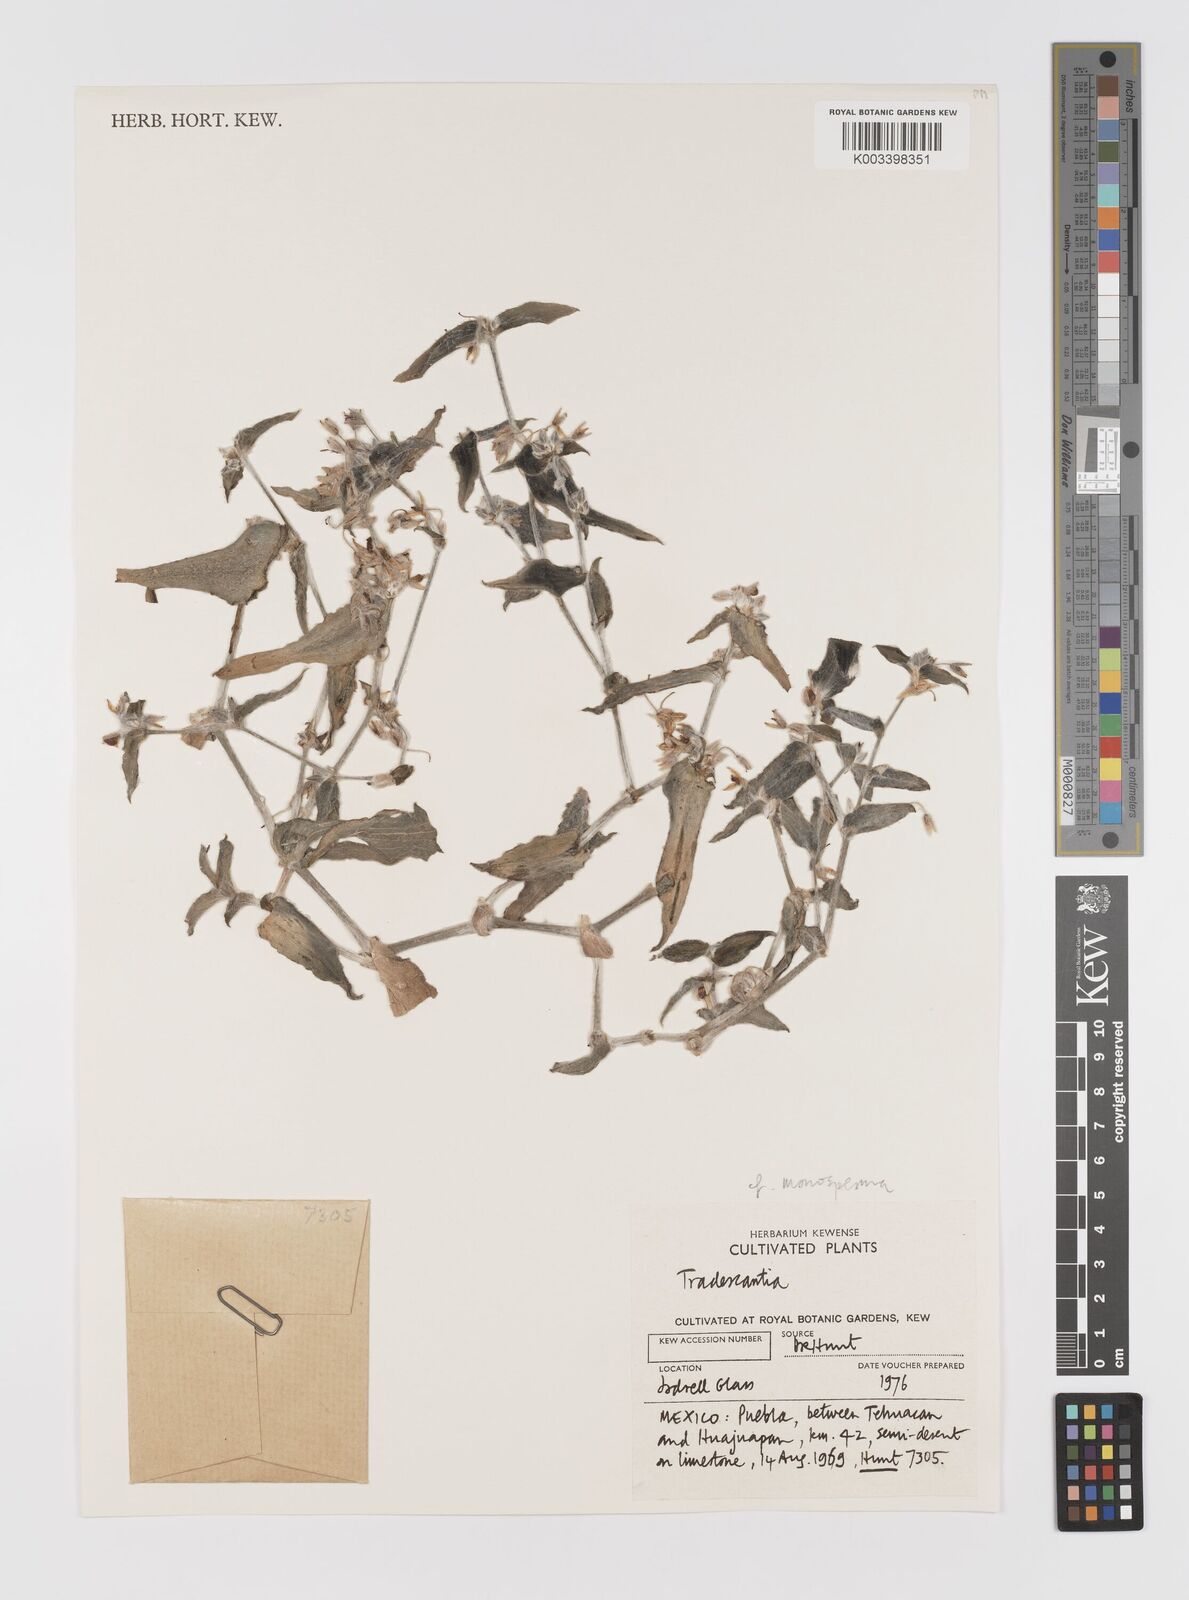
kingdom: Plantae
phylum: Tracheophyta
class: Liliopsida
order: Commelinales
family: Commelinaceae
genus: Tradescantia
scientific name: Tradescantia monosperma
